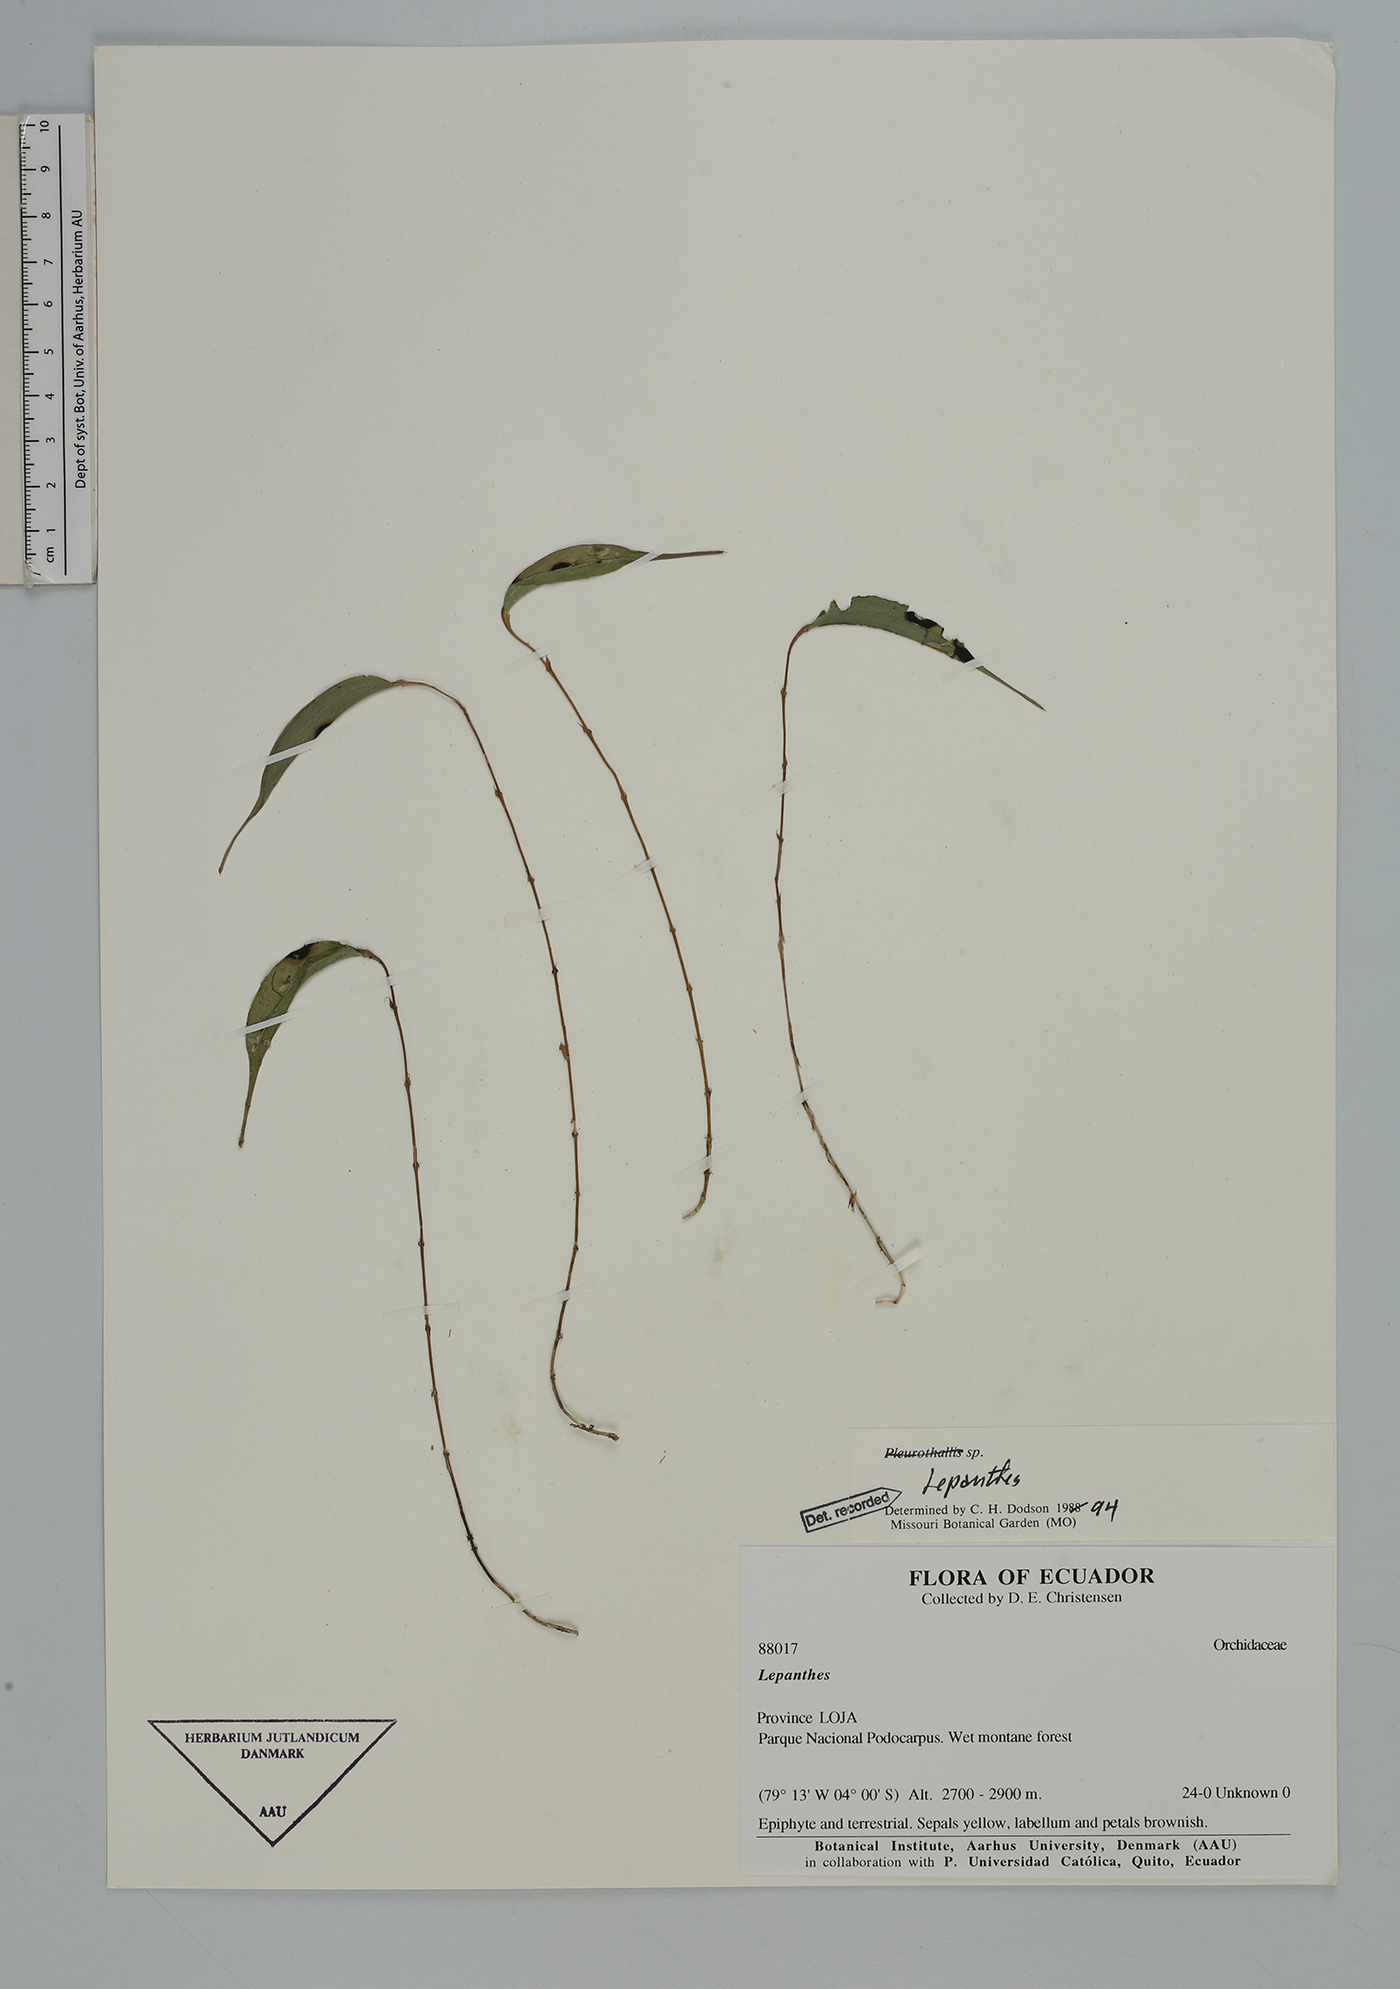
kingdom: Plantae
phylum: Tracheophyta
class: Liliopsida
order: Asparagales
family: Orchidaceae
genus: Lepanthes
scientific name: Lepanthes
